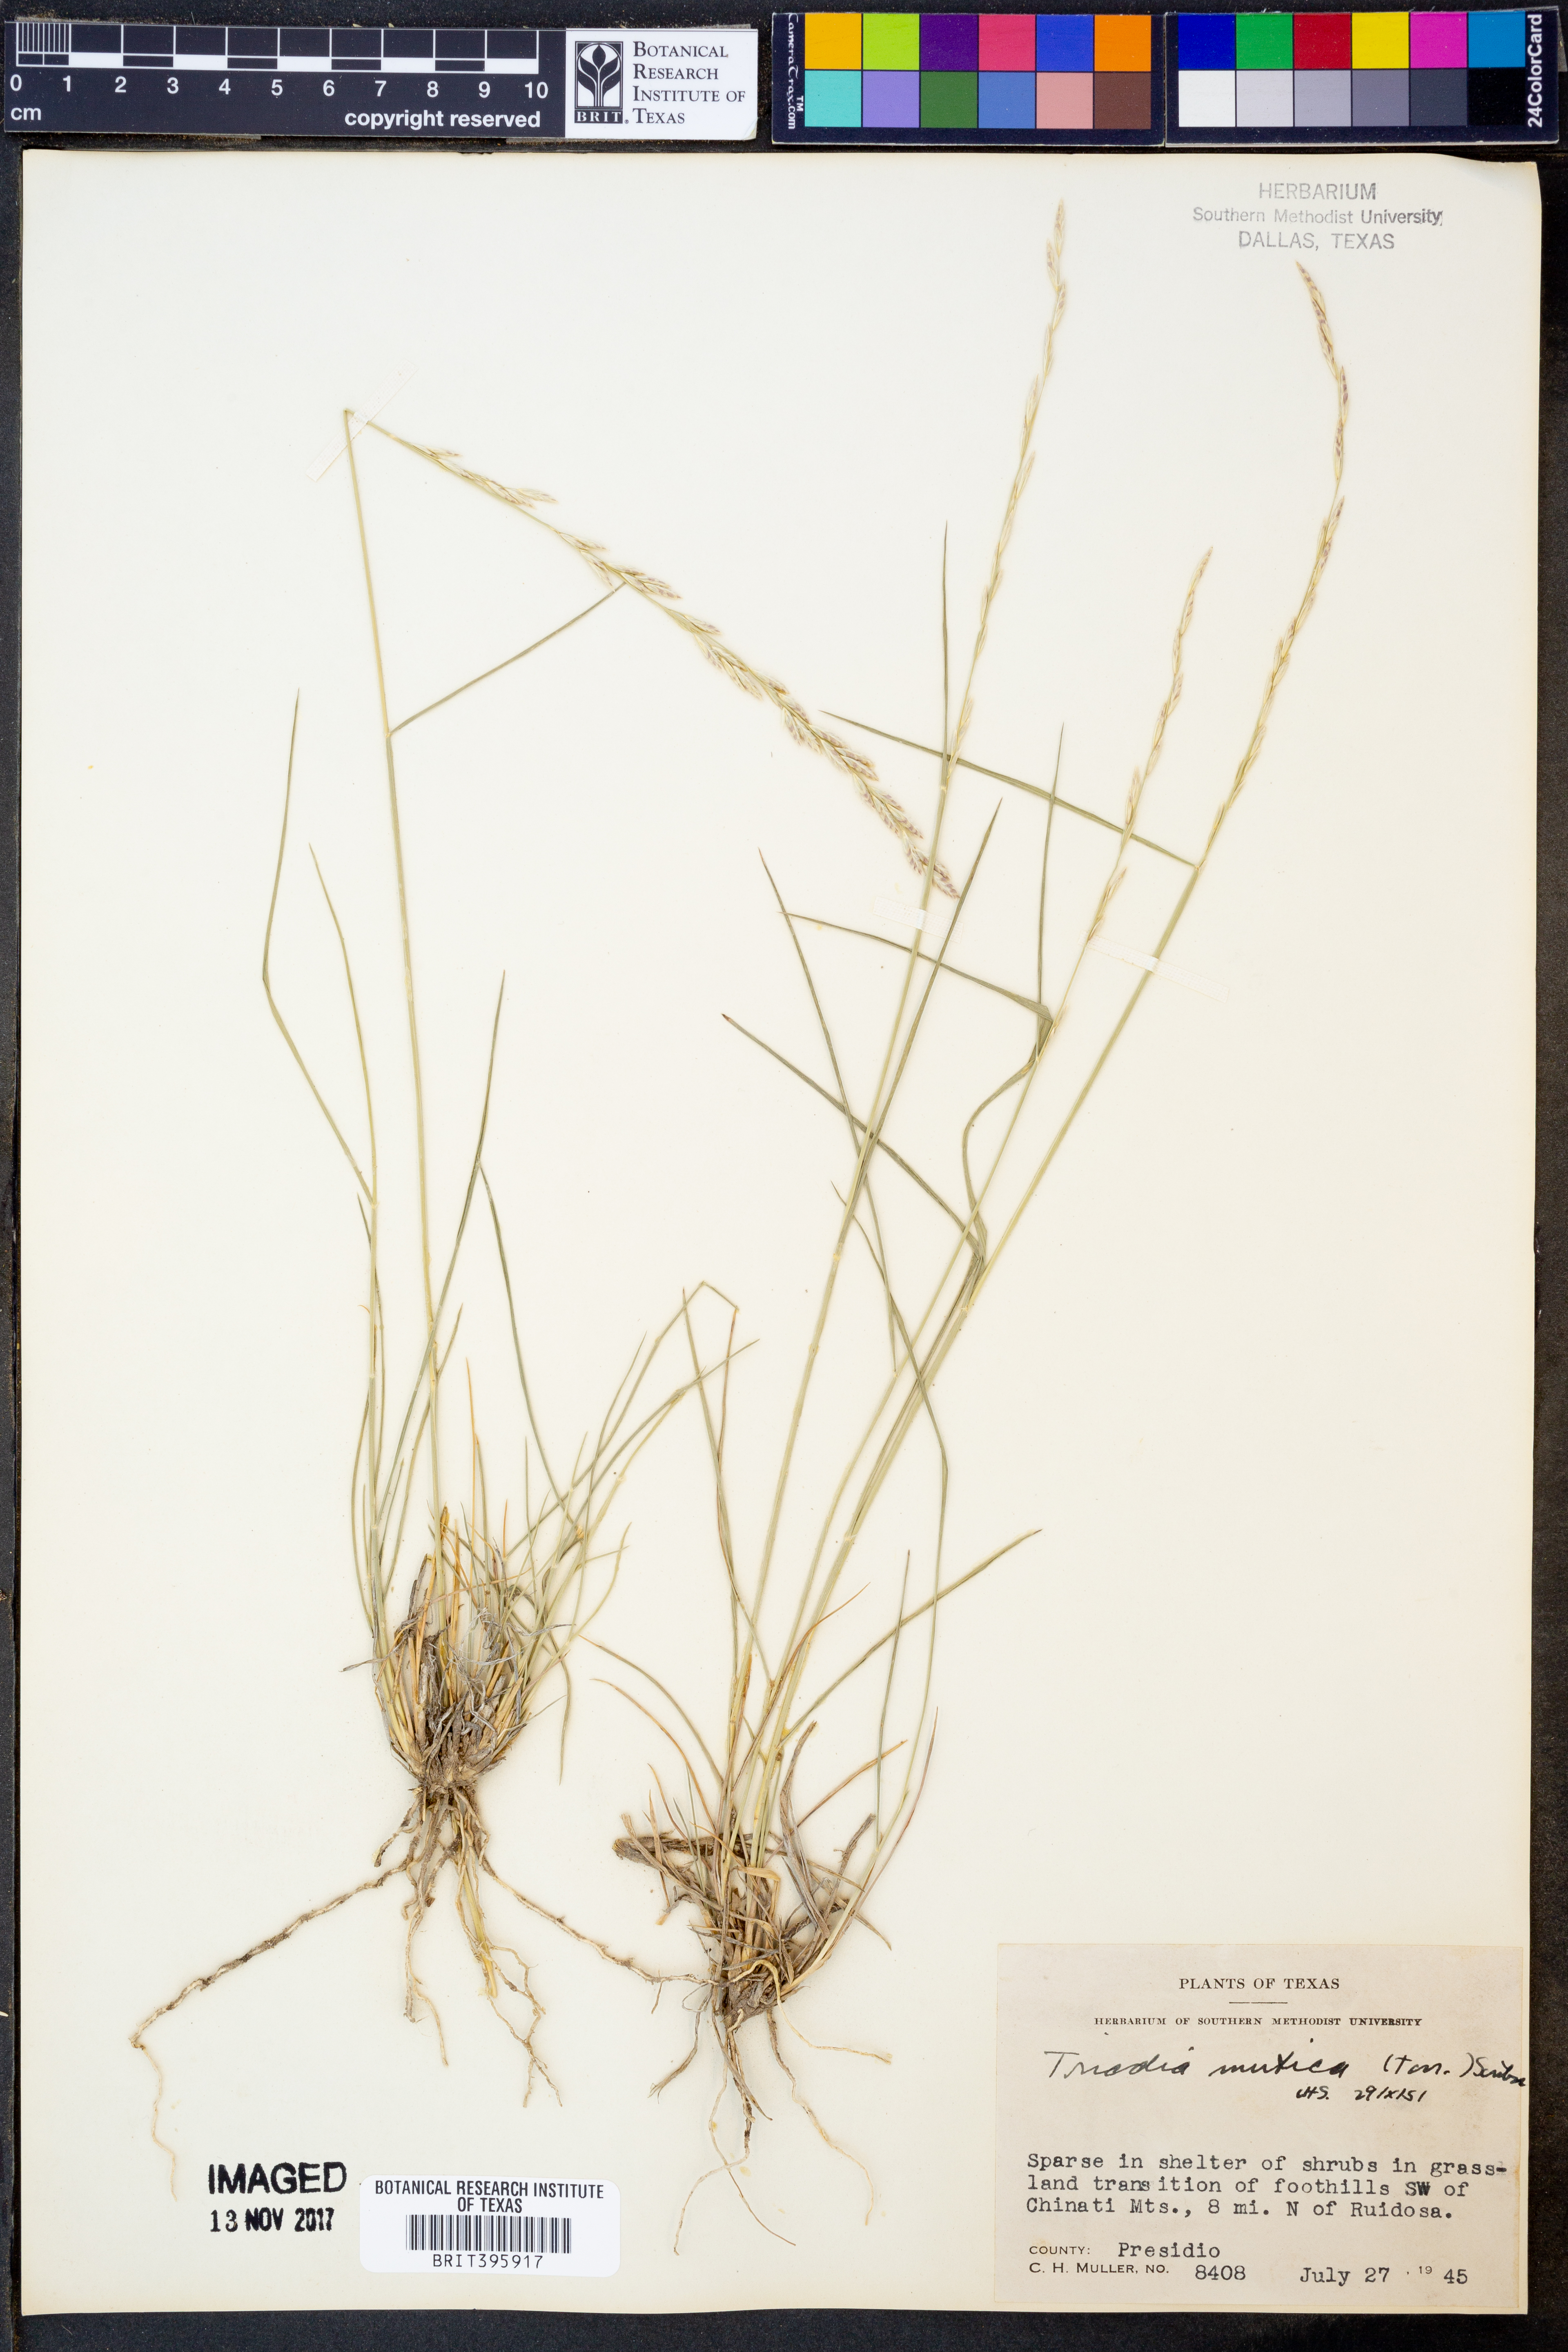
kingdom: Plantae
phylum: Tracheophyta
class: Liliopsida
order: Poales
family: Poaceae
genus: Tridentopsis
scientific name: Tridentopsis mutica
